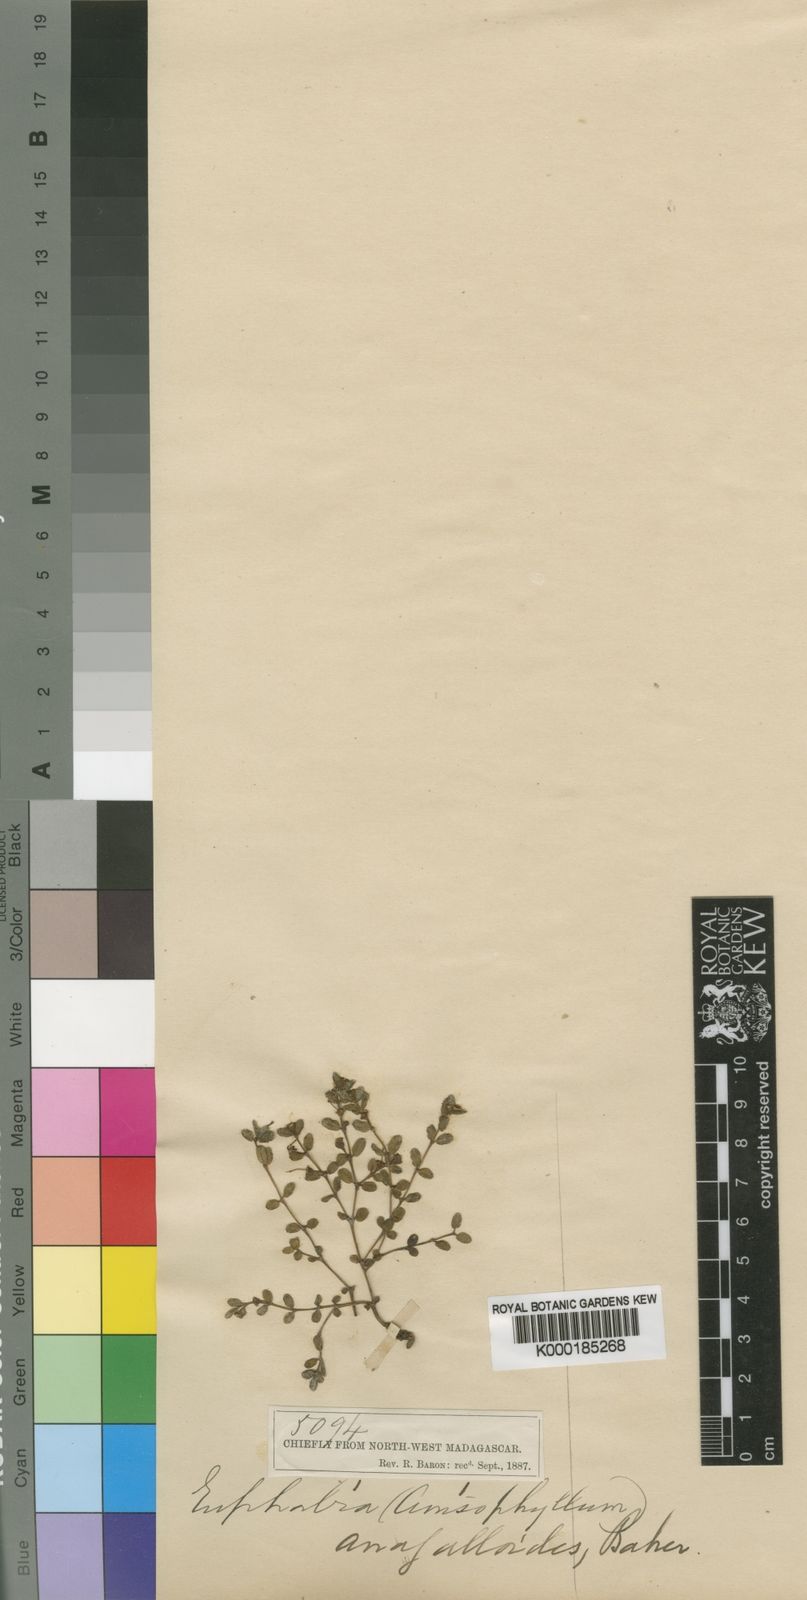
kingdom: Plantae
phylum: Tracheophyta
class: Magnoliopsida
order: Malpighiales
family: Euphorbiaceae
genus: Euphorbia
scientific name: Euphorbia trichophylla
